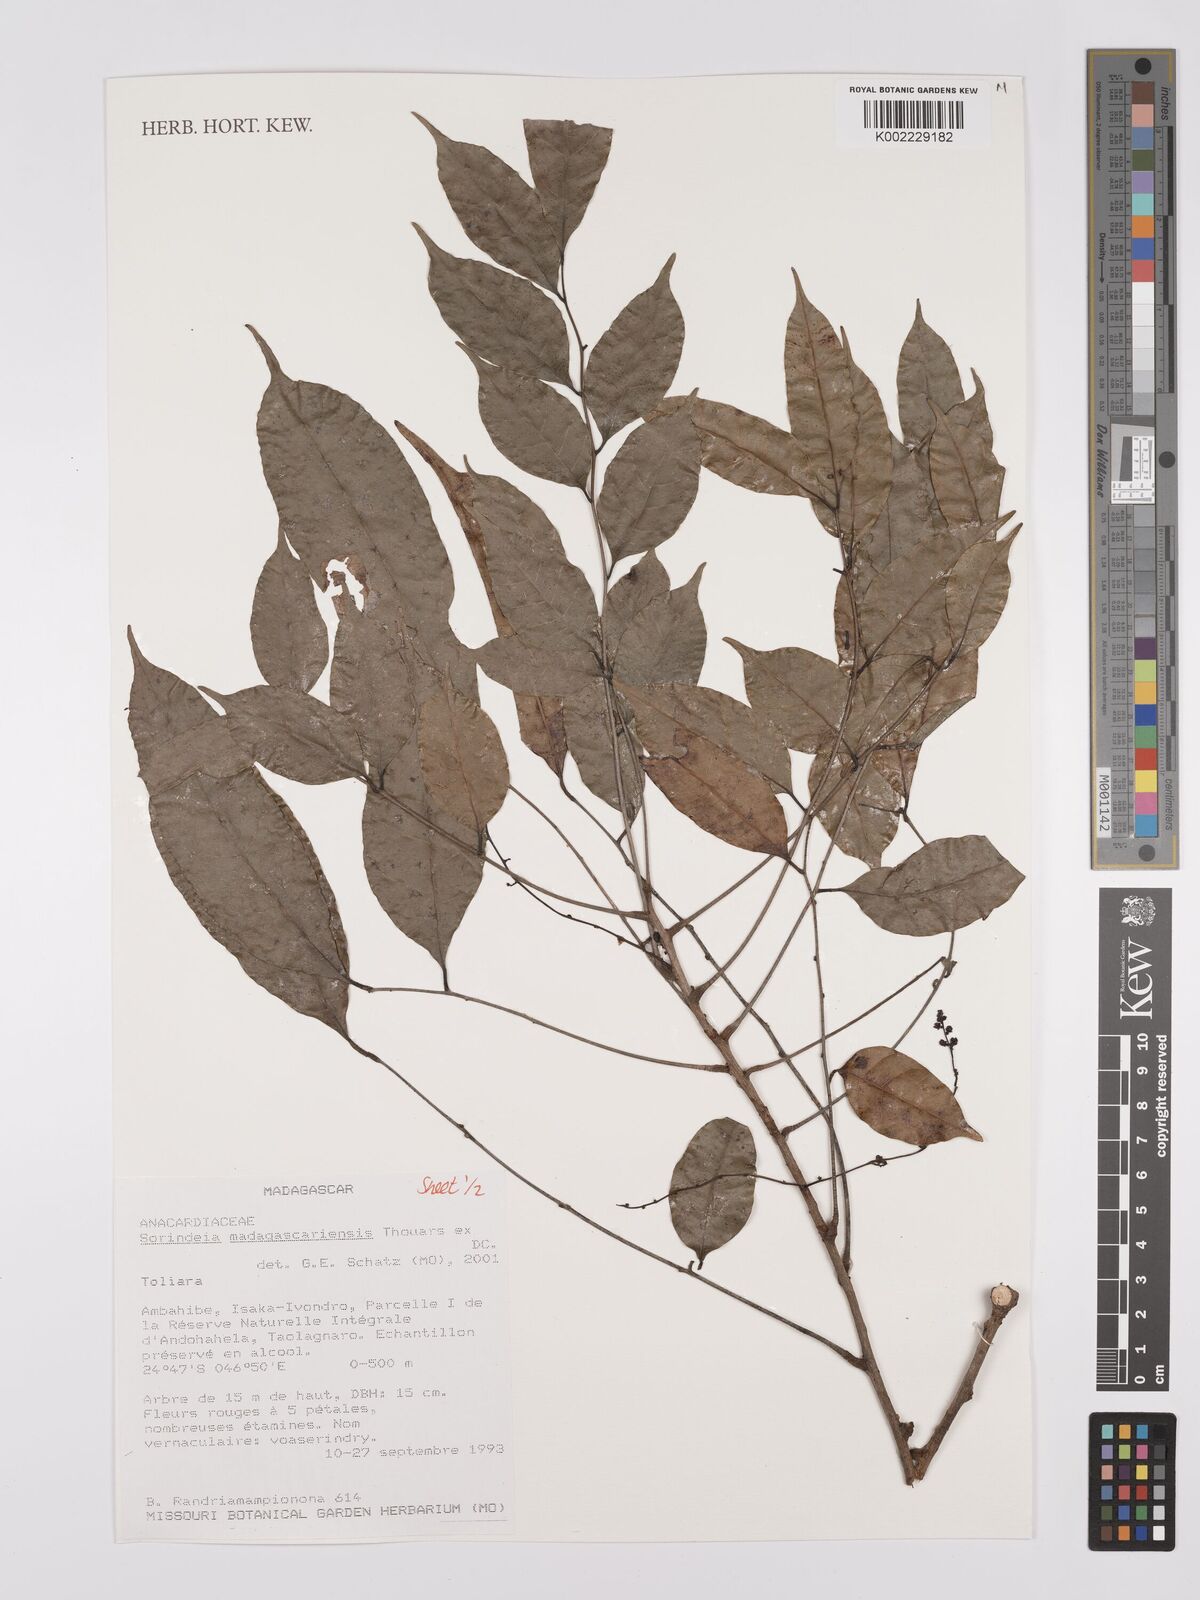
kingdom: Plantae
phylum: Tracheophyta
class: Magnoliopsida
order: Sapindales
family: Anacardiaceae
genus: Sorindeia
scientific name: Sorindeia madagascariensis
